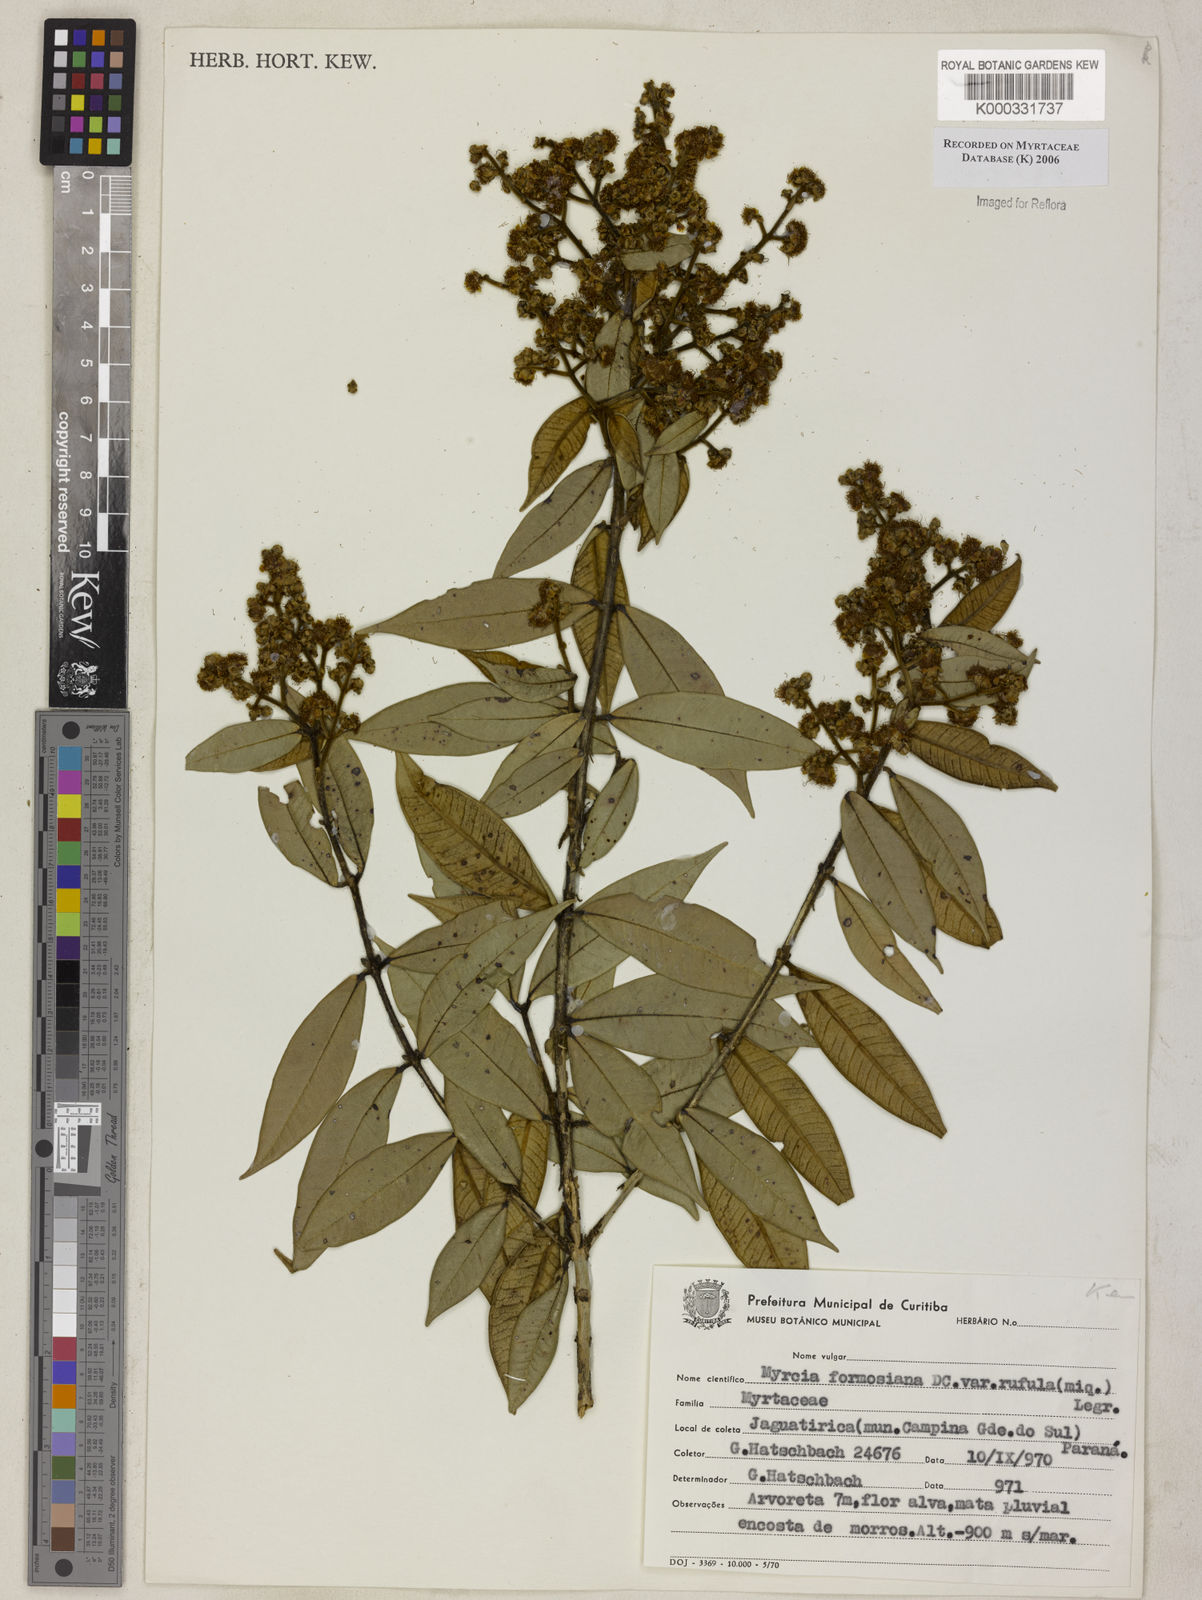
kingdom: Plantae
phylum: Tracheophyta
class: Magnoliopsida
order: Myrtales
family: Myrtaceae
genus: Myrcia
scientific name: Myrcia splendens
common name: Surinam cherry
